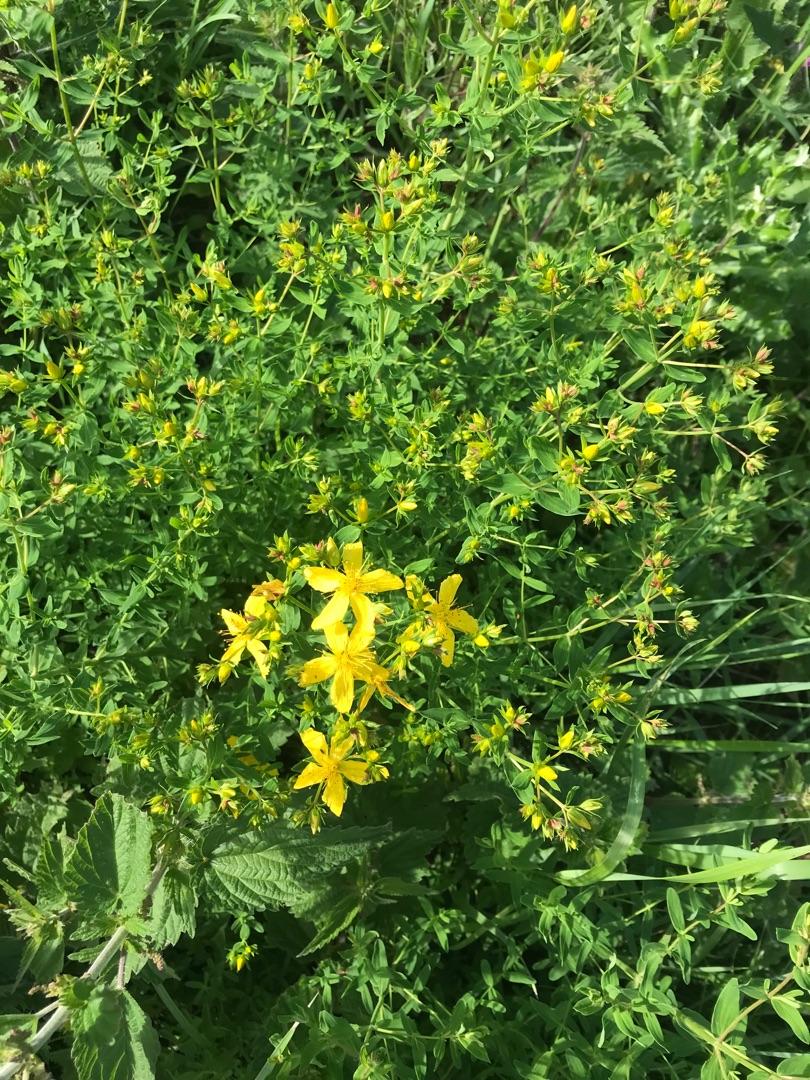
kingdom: Plantae
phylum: Tracheophyta
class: Magnoliopsida
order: Malpighiales
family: Hypericaceae
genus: Hypericum
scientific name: Hypericum perforatum
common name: Prikbladet perikon
